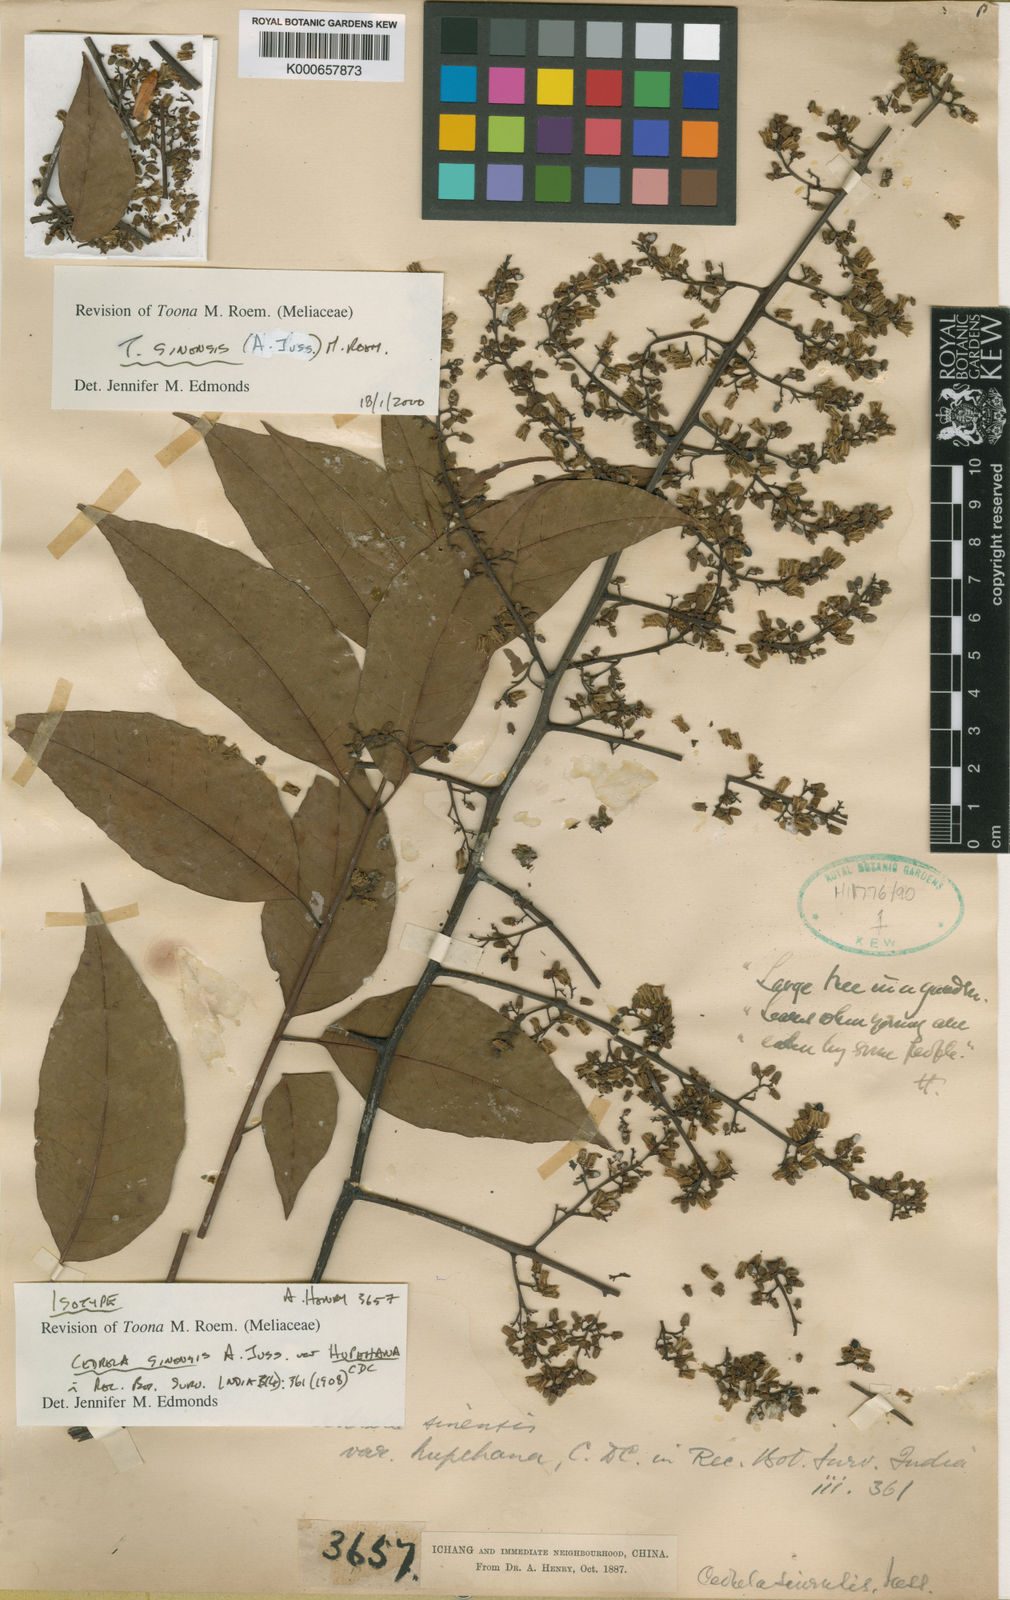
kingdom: Plantae
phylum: Tracheophyta
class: Magnoliopsida
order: Sapindales
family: Meliaceae
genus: Toona
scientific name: Toona sinensis
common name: Red toon
